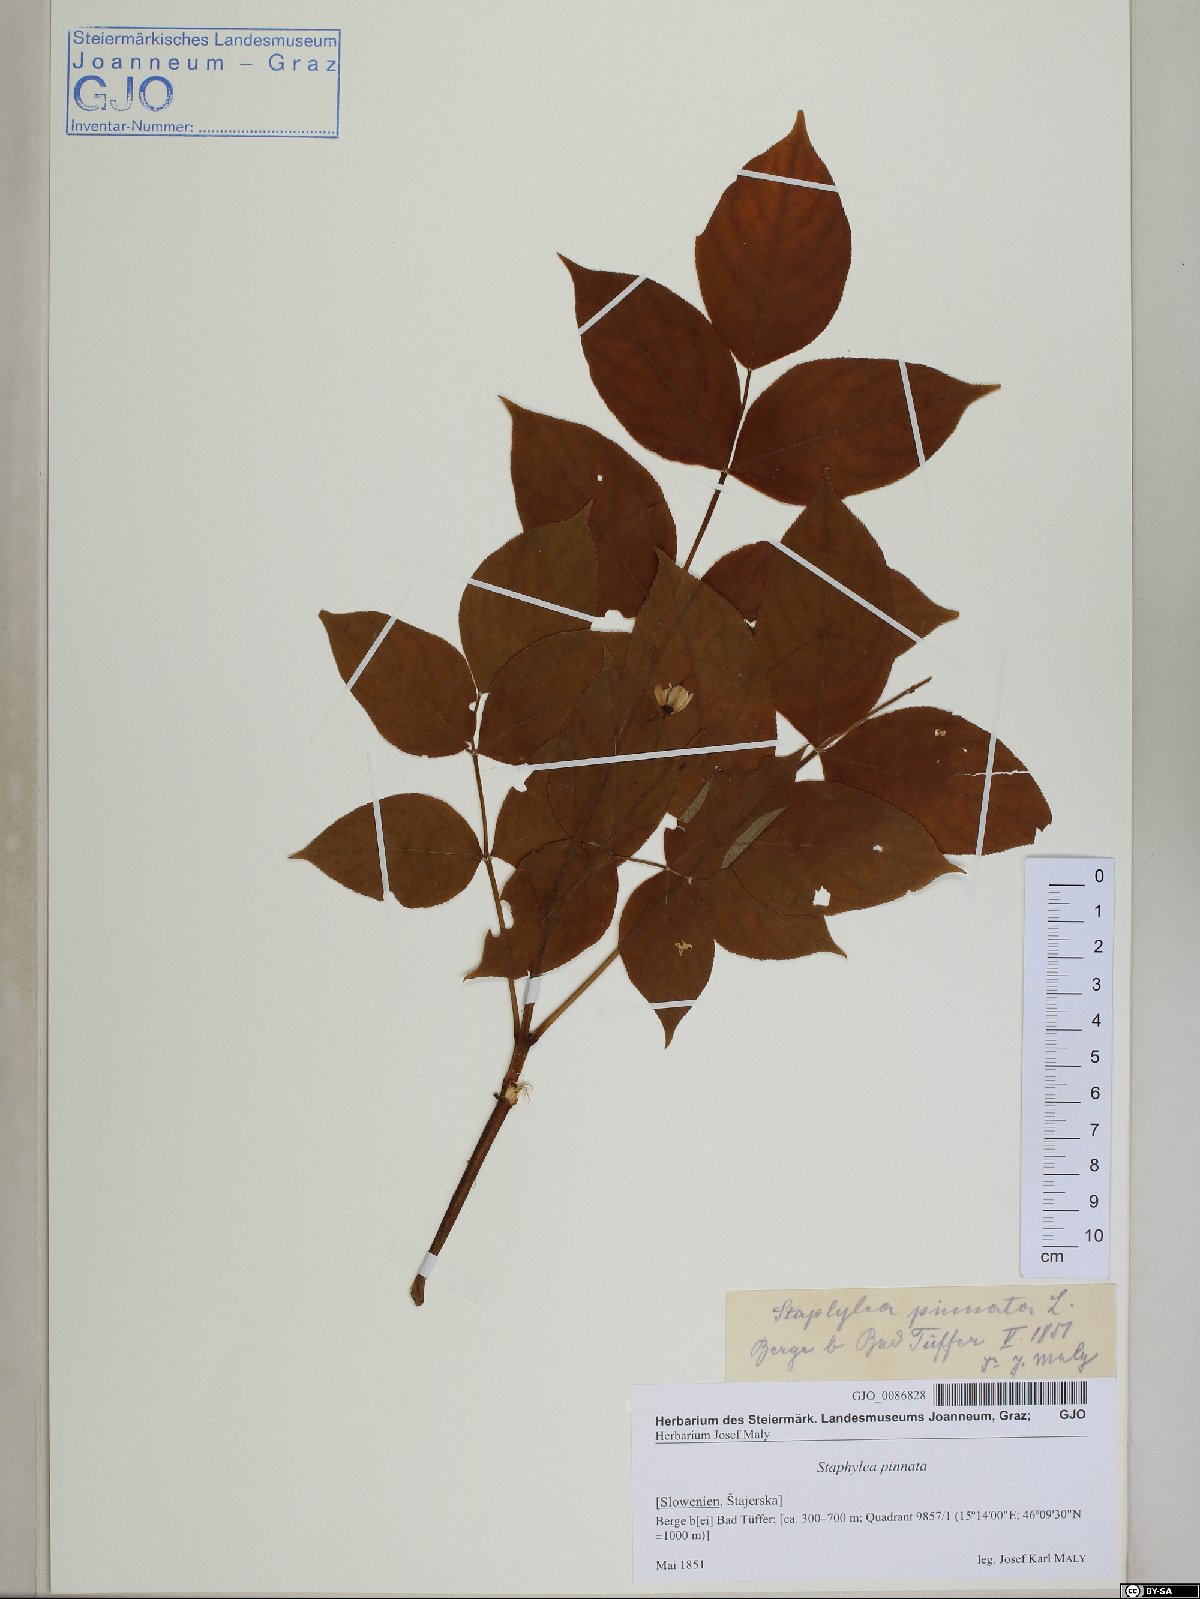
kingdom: Plantae
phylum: Tracheophyta
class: Magnoliopsida
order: Crossosomatales
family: Staphyleaceae
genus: Staphylea
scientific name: Staphylea pinnata
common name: Bladdernut
